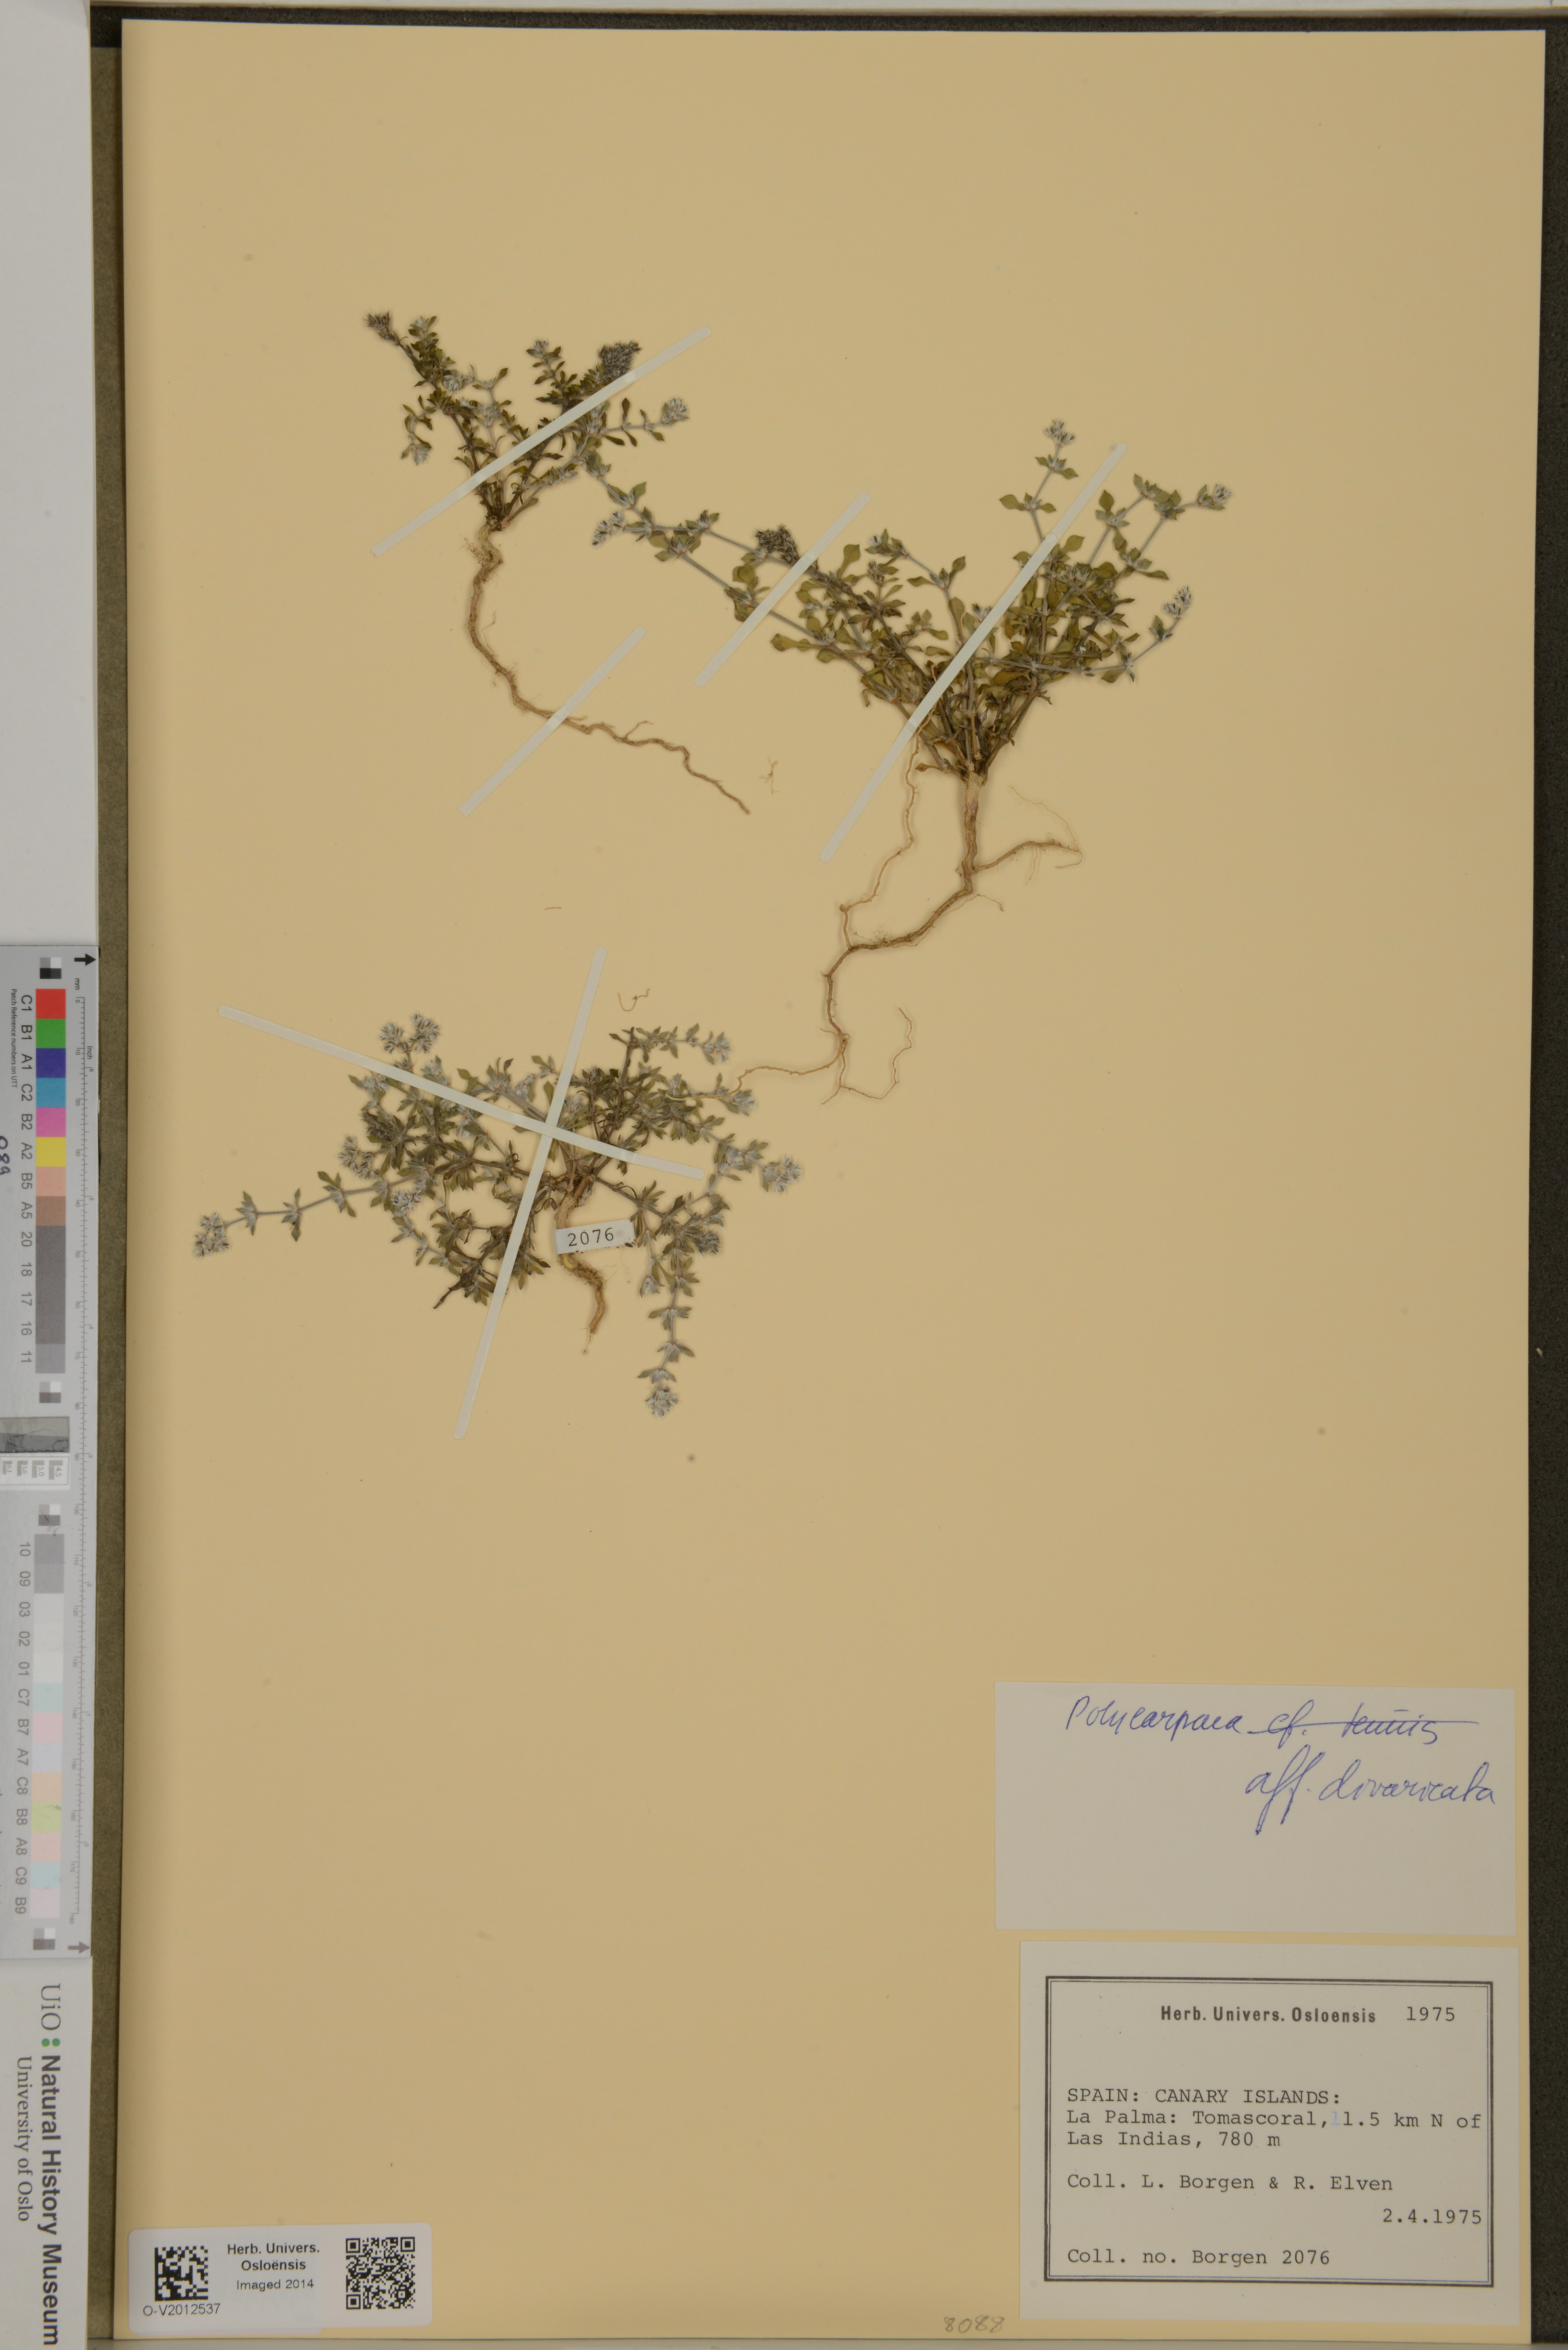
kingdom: Plantae
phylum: Tracheophyta
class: Magnoliopsida
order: Caryophyllales
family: Caryophyllaceae
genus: Polycarpaea
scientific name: Polycarpaea divaricata
